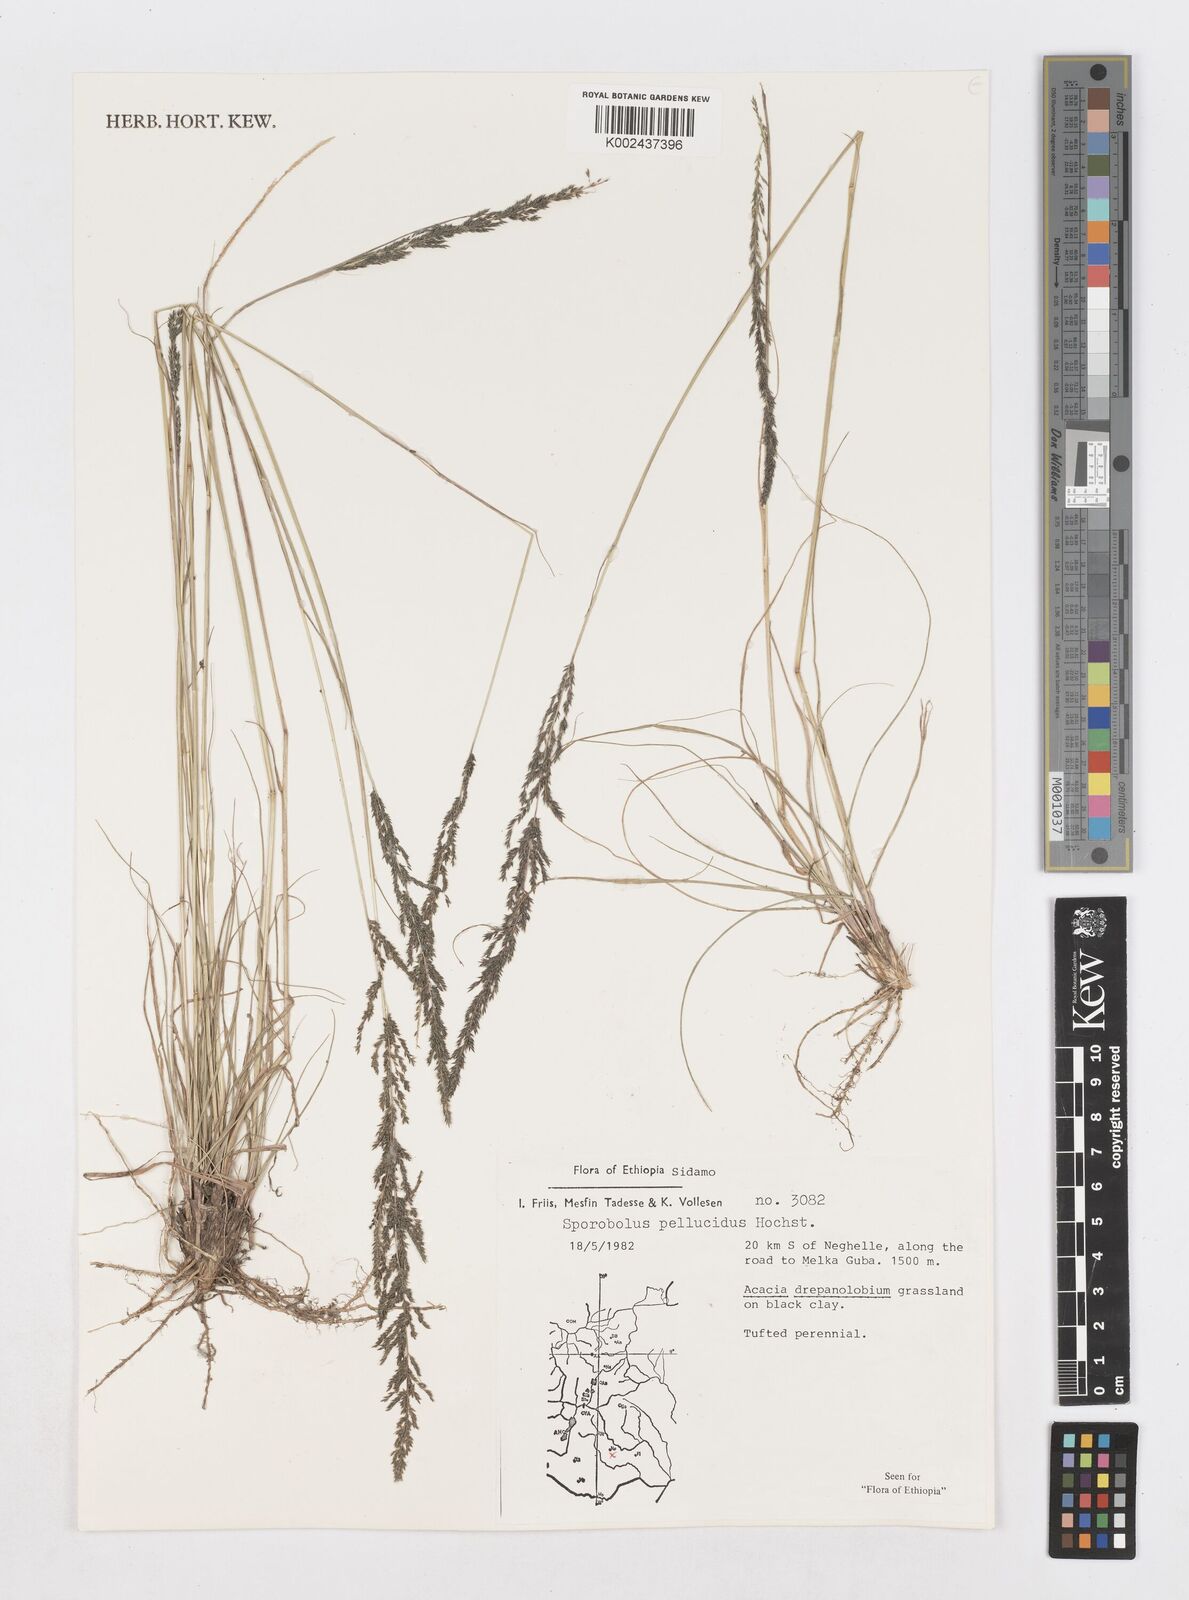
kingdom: Plantae
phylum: Tracheophyta
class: Liliopsida
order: Poales
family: Poaceae
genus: Sporobolus
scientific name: Sporobolus pellucidus
